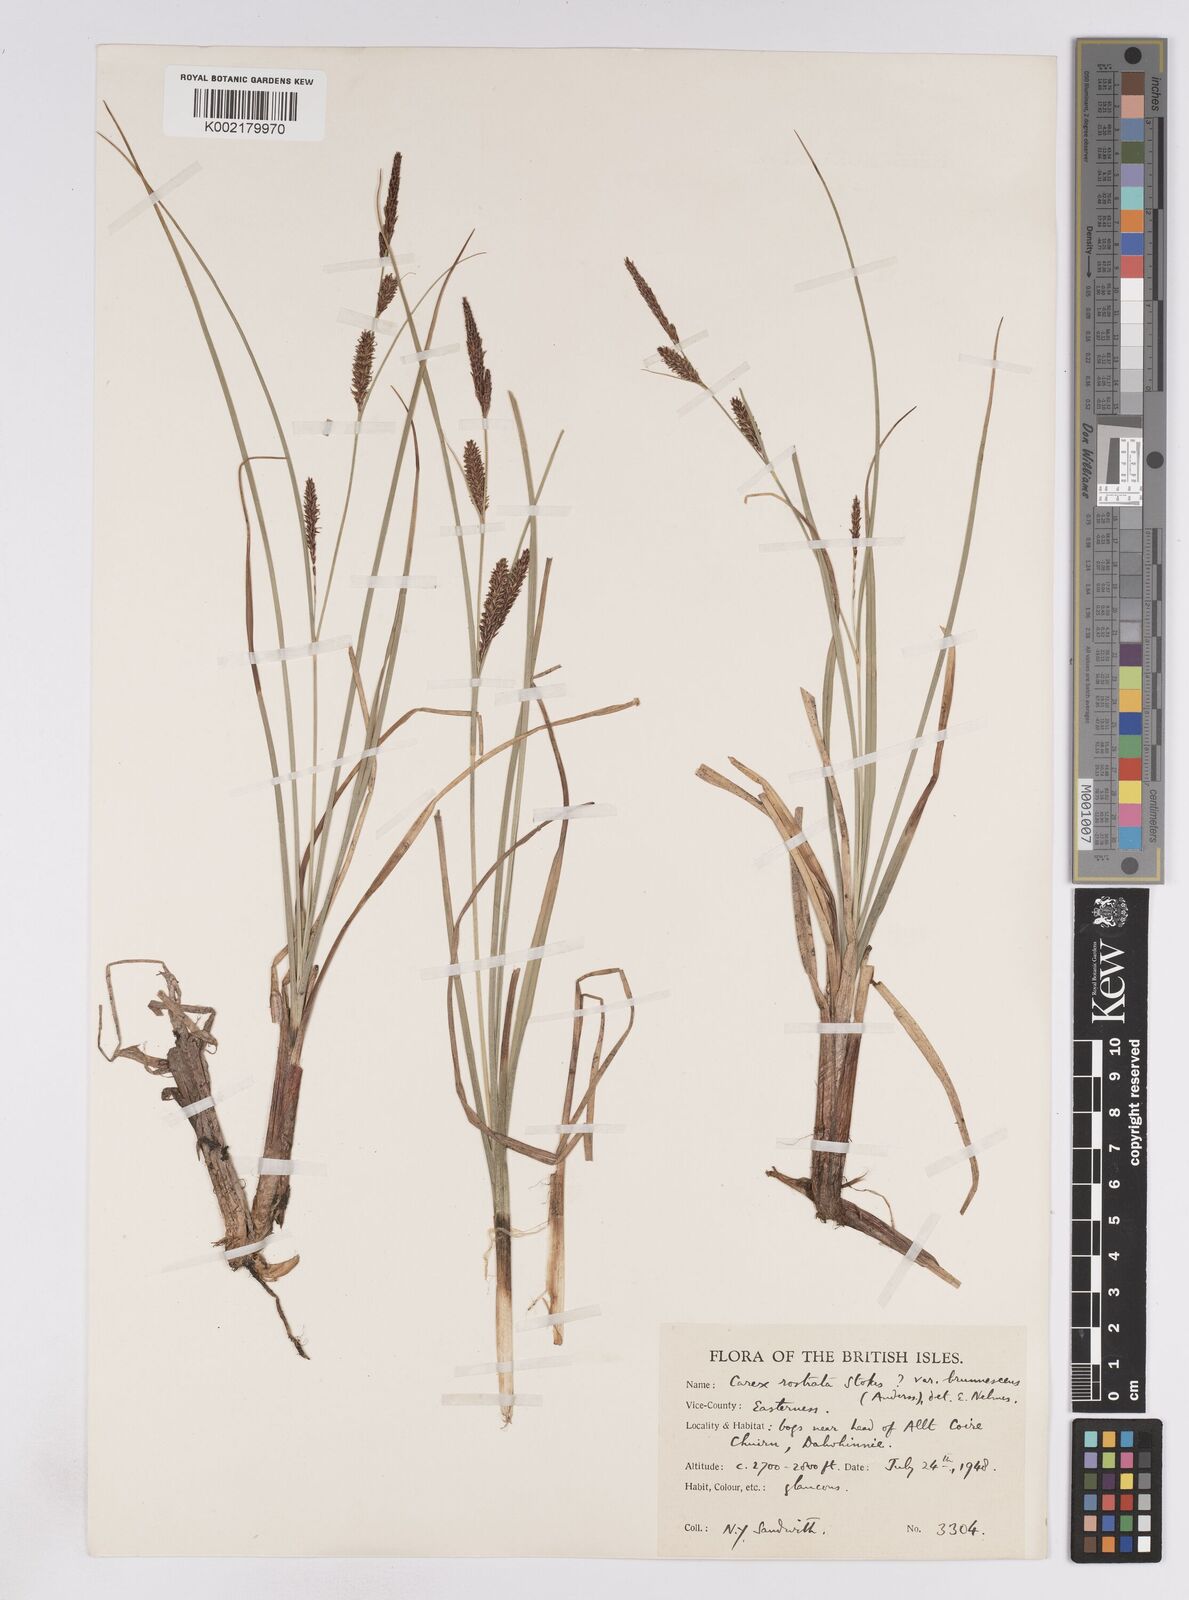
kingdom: Plantae
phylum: Tracheophyta
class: Liliopsida
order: Poales
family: Cyperaceae
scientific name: Cyperaceae
